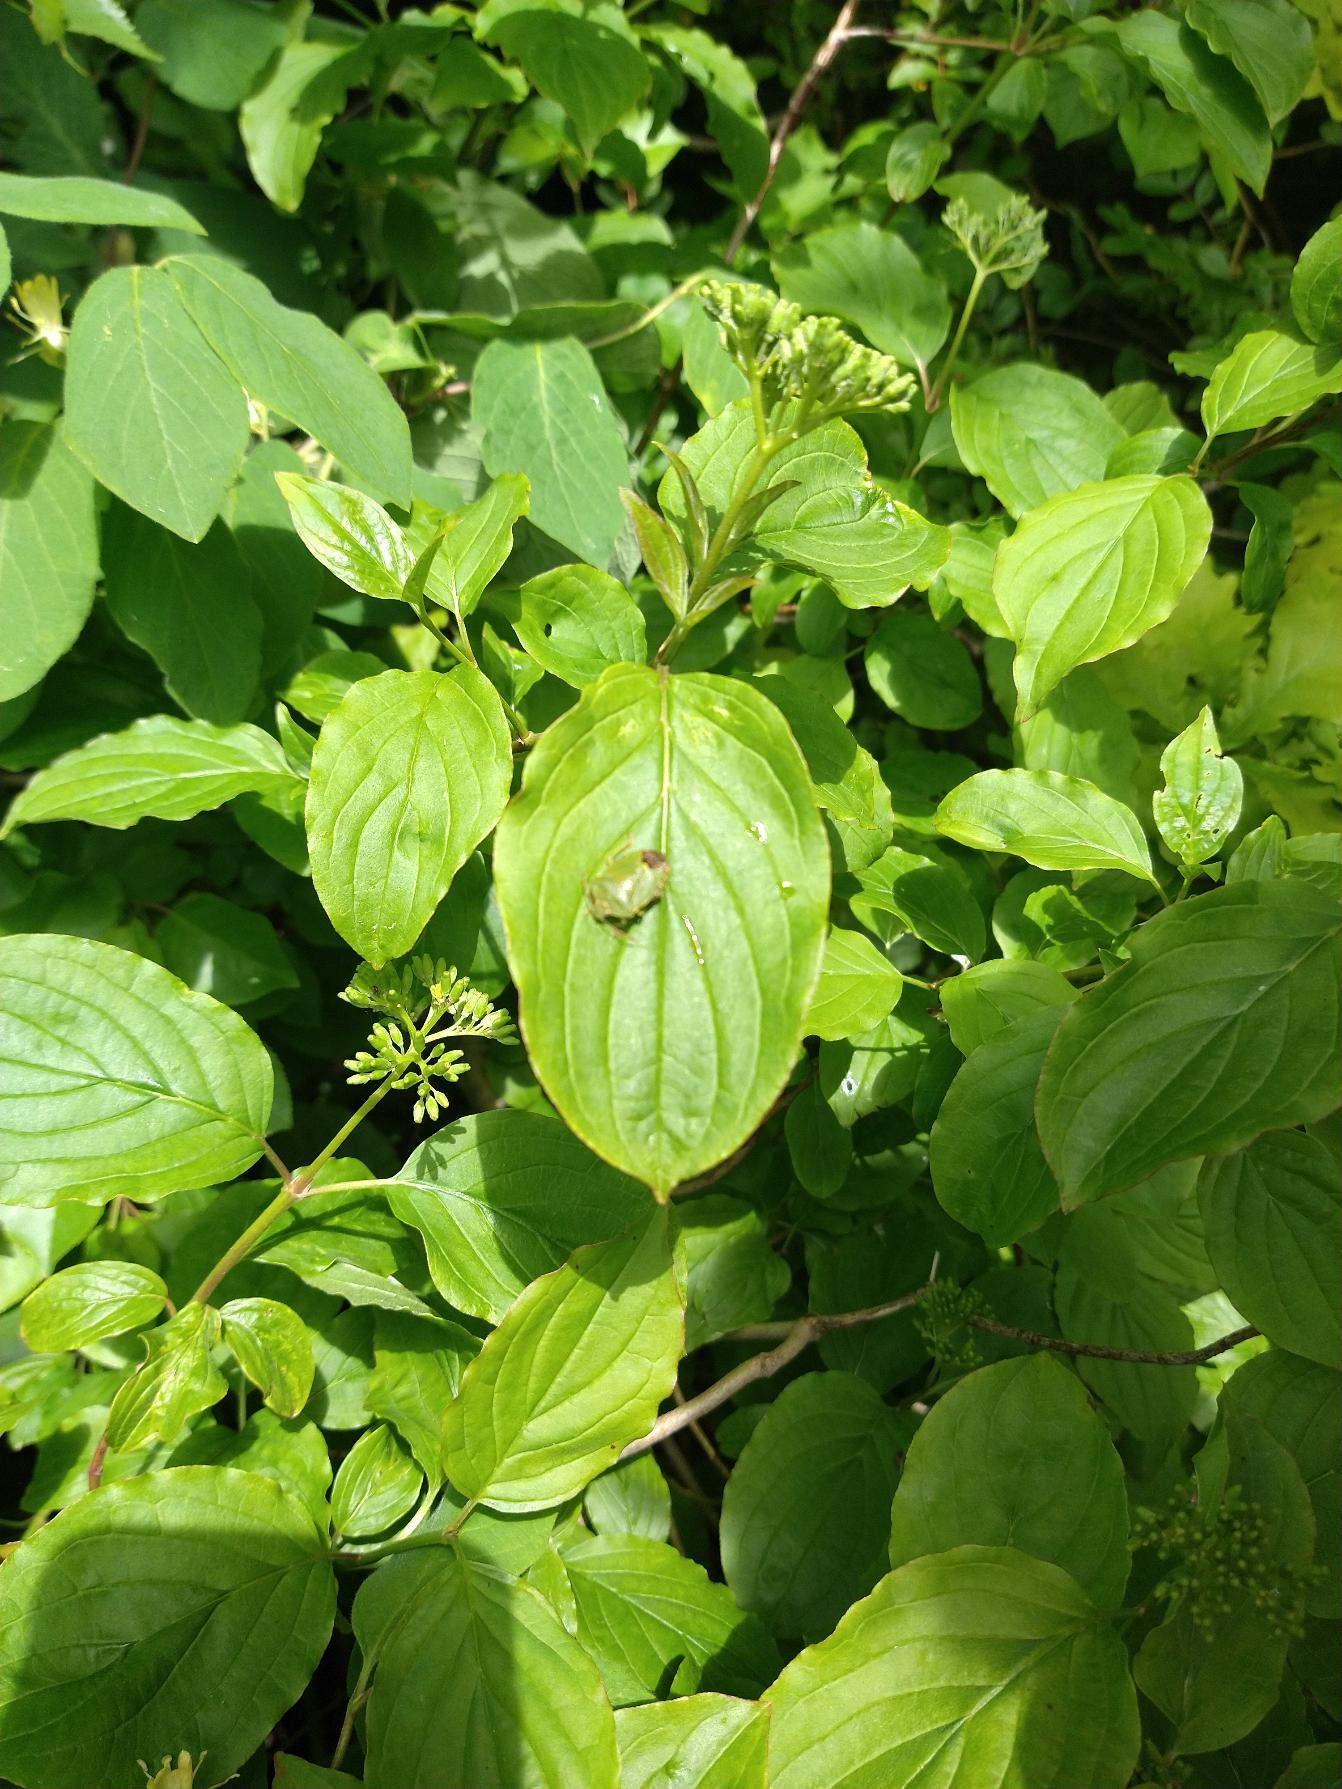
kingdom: Animalia
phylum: Arthropoda
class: Insecta
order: Hemiptera
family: Pentatomidae
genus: Palomena
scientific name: Palomena prasina
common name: Grøn bredtæge
